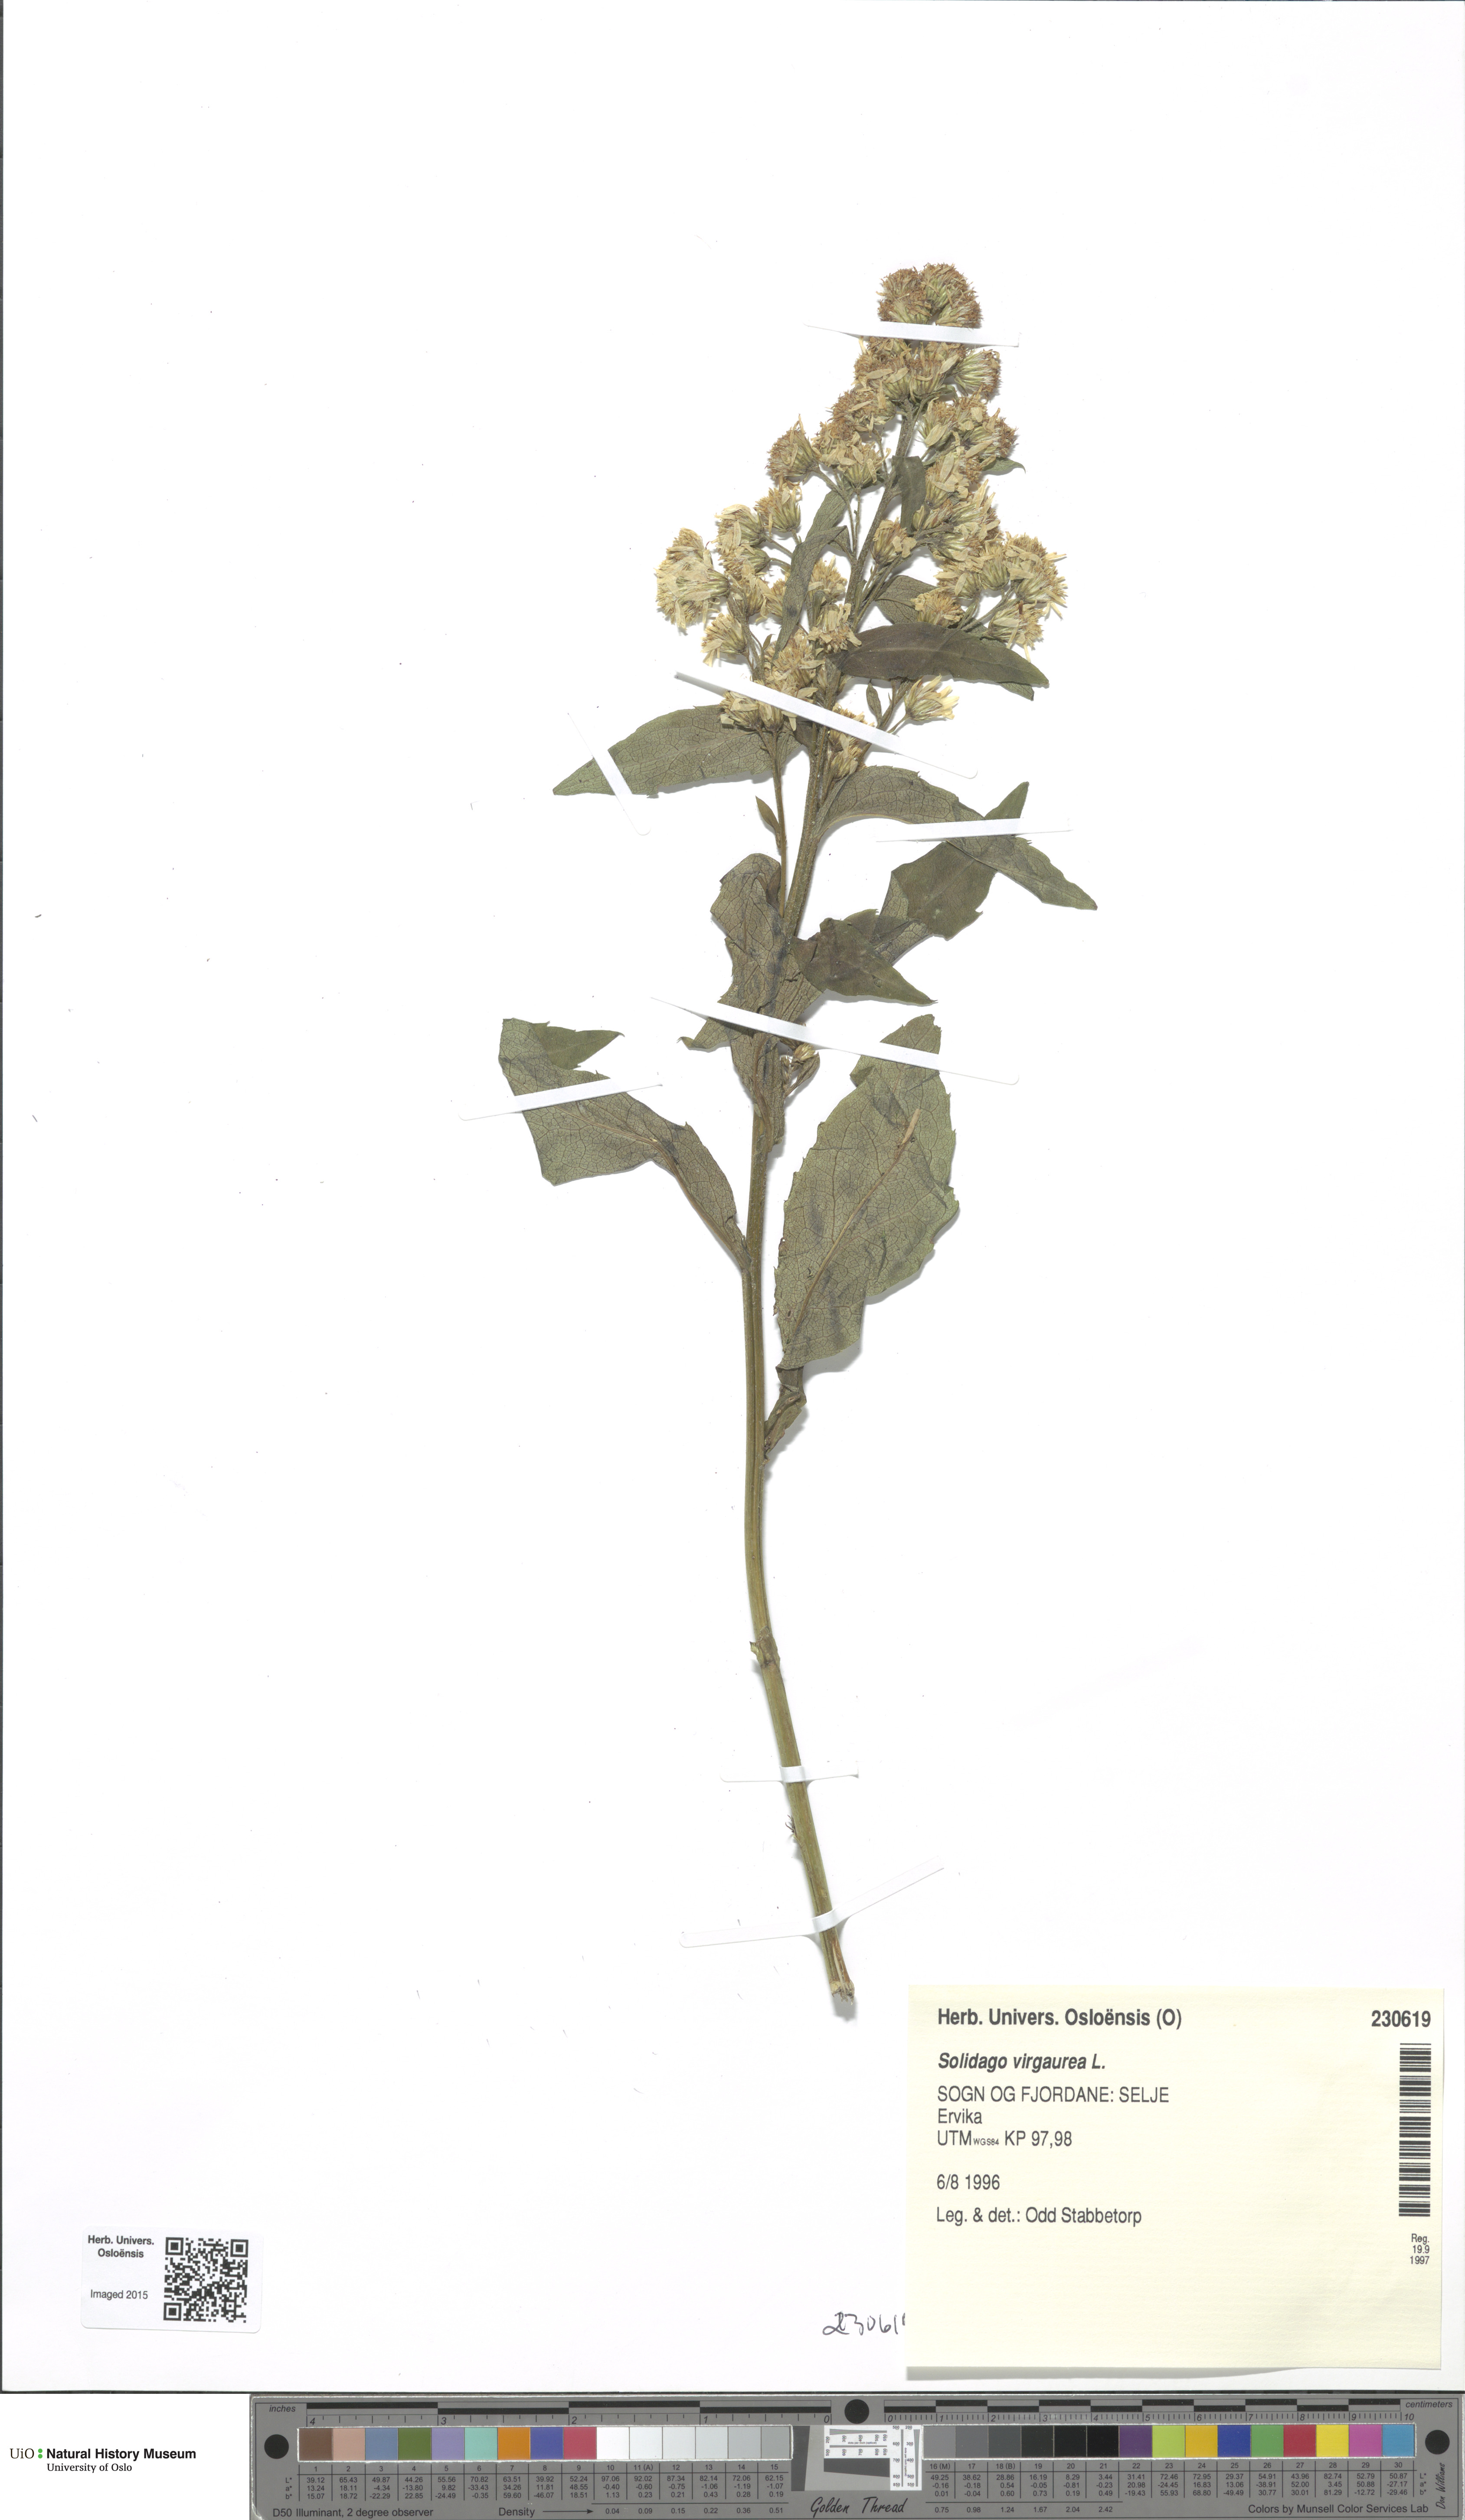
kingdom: Plantae
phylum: Tracheophyta
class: Magnoliopsida
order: Asterales
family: Asteraceae
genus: Solidago
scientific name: Solidago virgaurea
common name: Goldenrod
